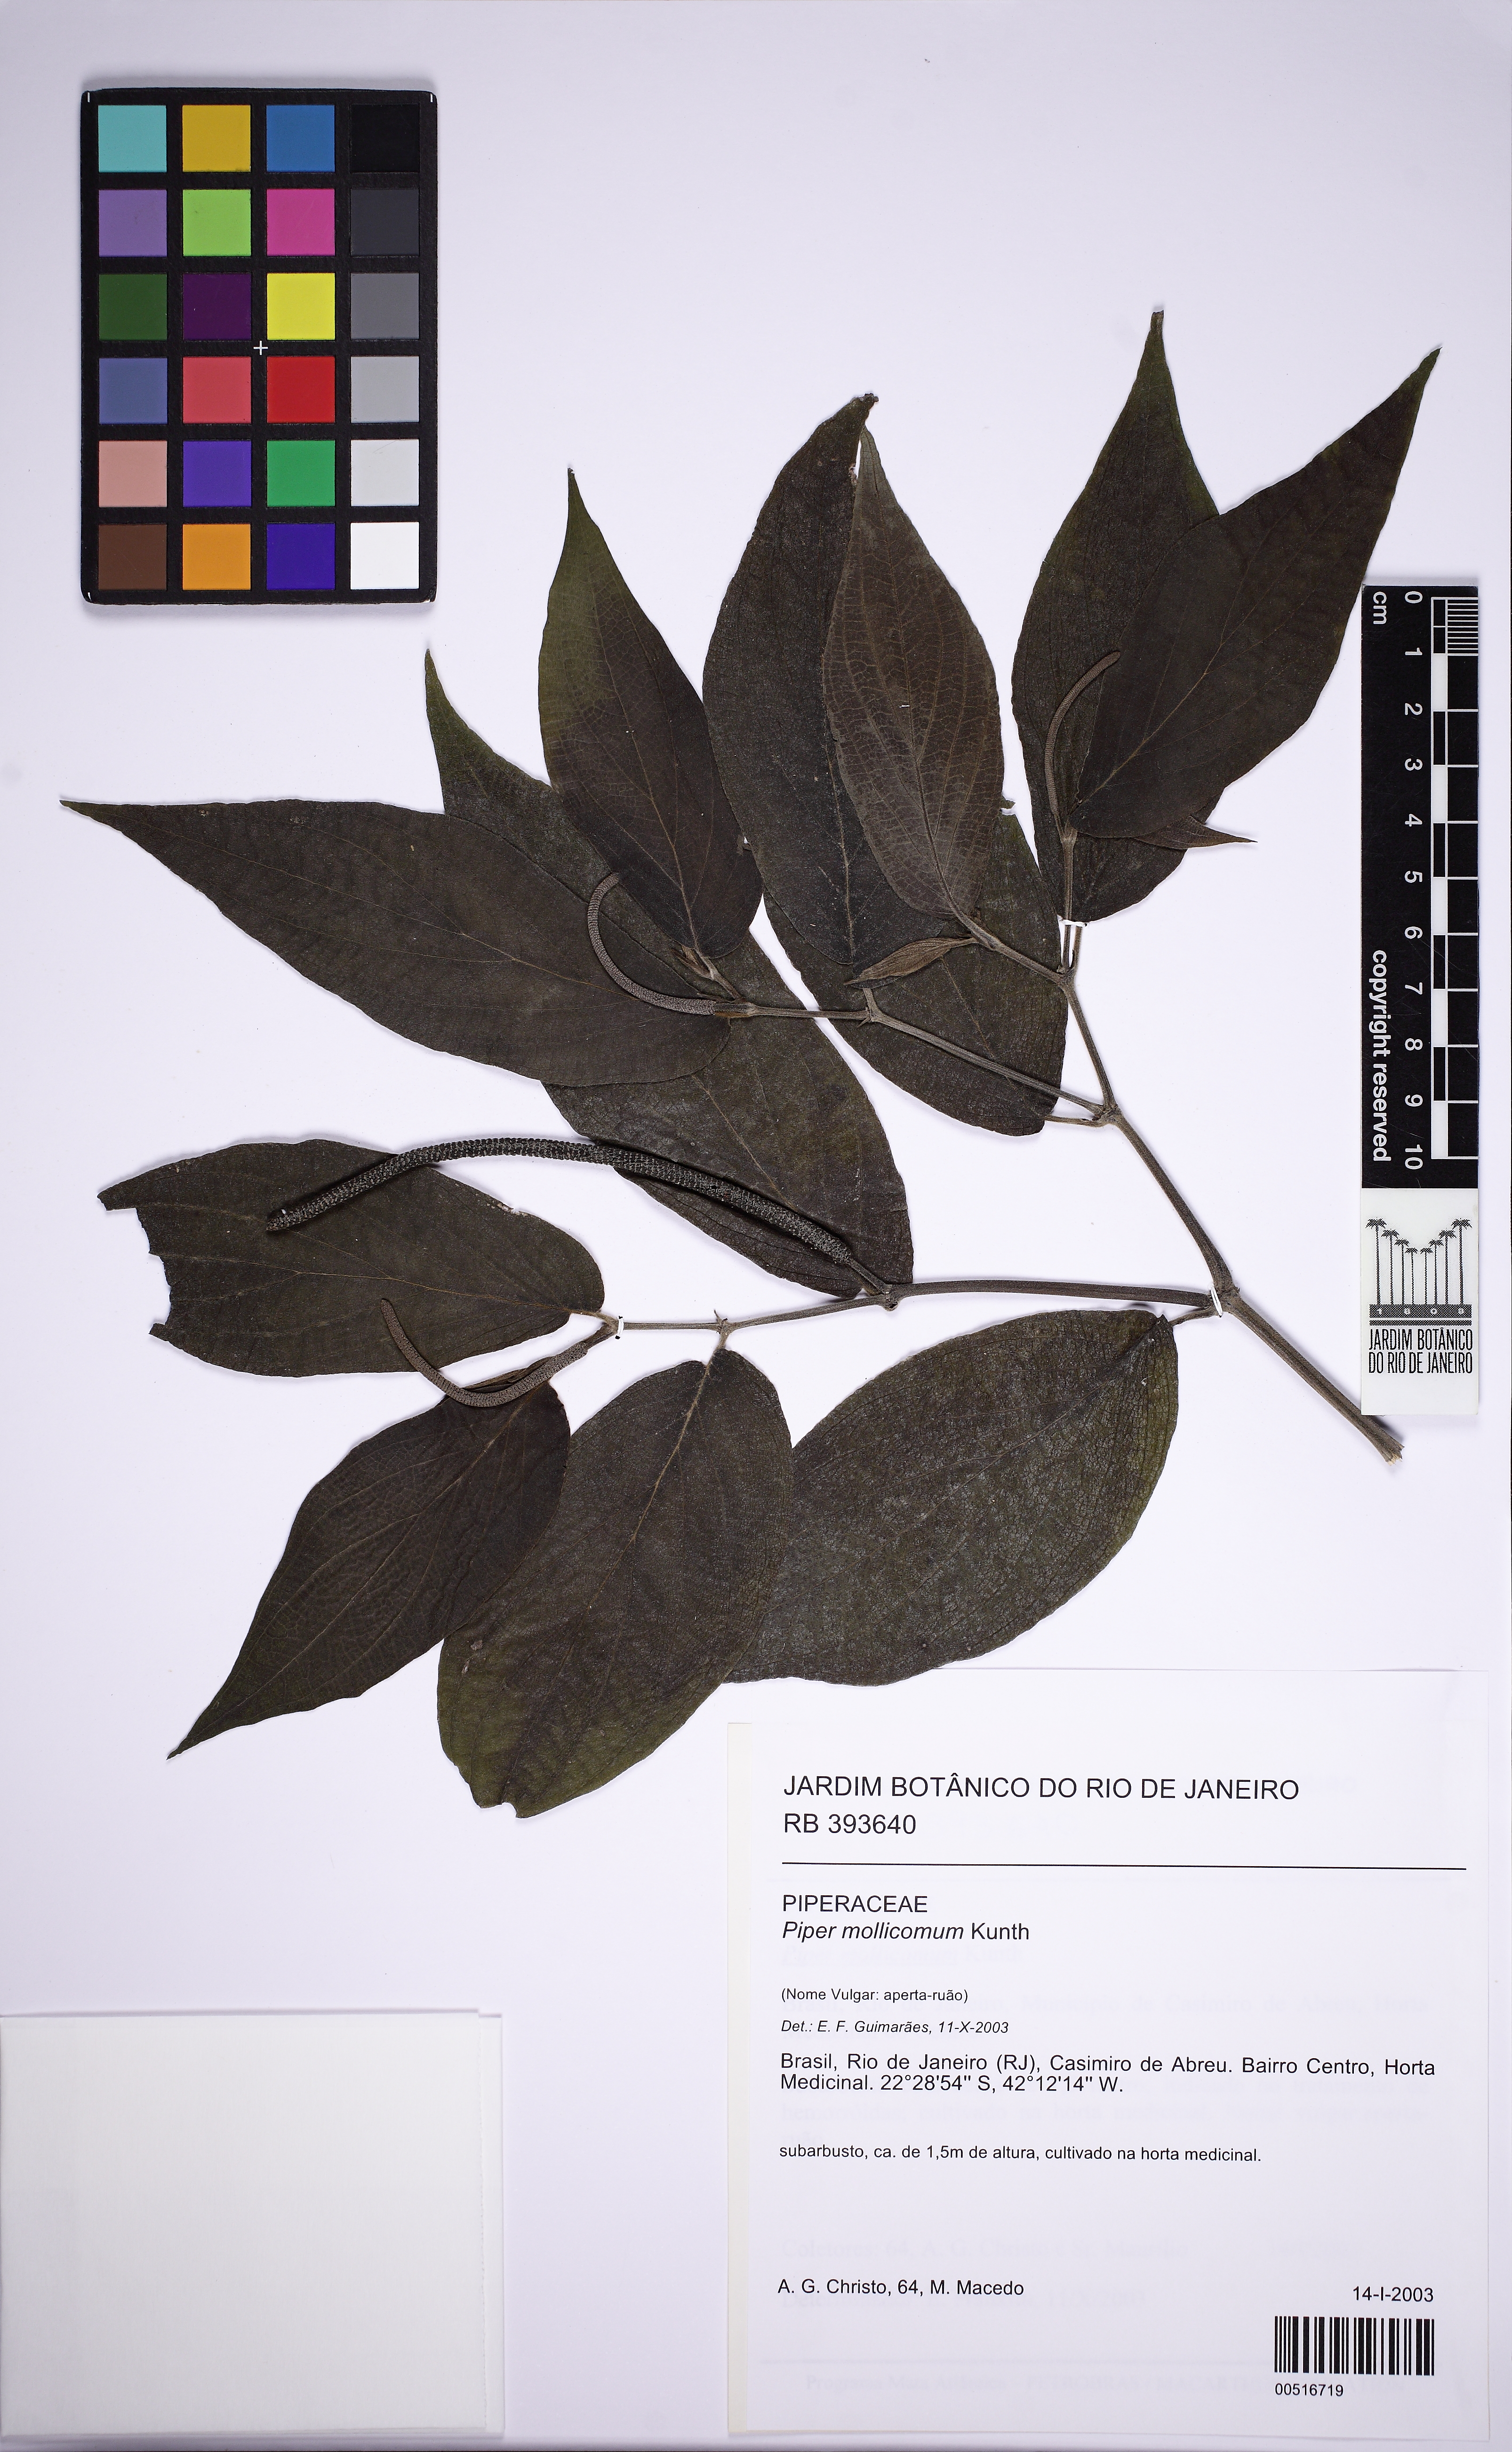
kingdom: Plantae
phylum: Tracheophyta
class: Magnoliopsida
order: Piperales
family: Piperaceae
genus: Piper
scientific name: Piper mollicomum
